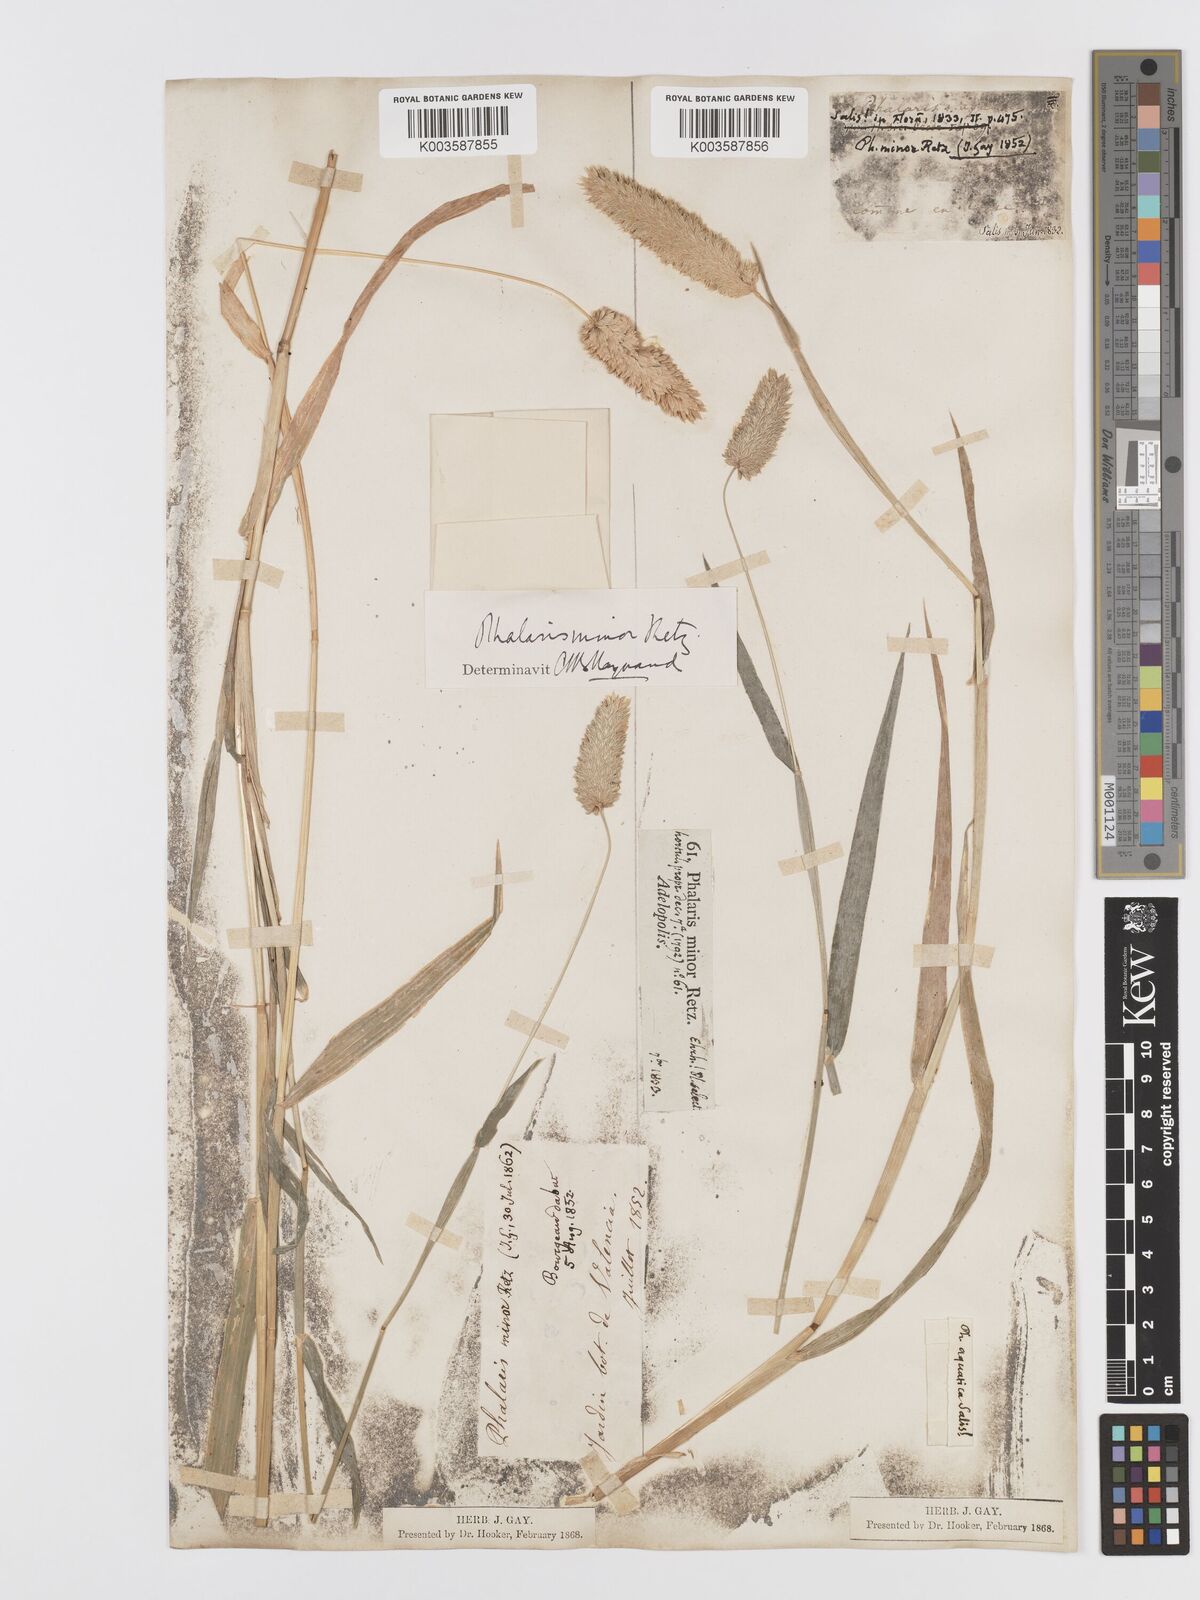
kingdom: Plantae
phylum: Tracheophyta
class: Liliopsida
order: Poales
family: Poaceae
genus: Phalaris
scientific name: Phalaris minor
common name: Littleseed canarygrass
